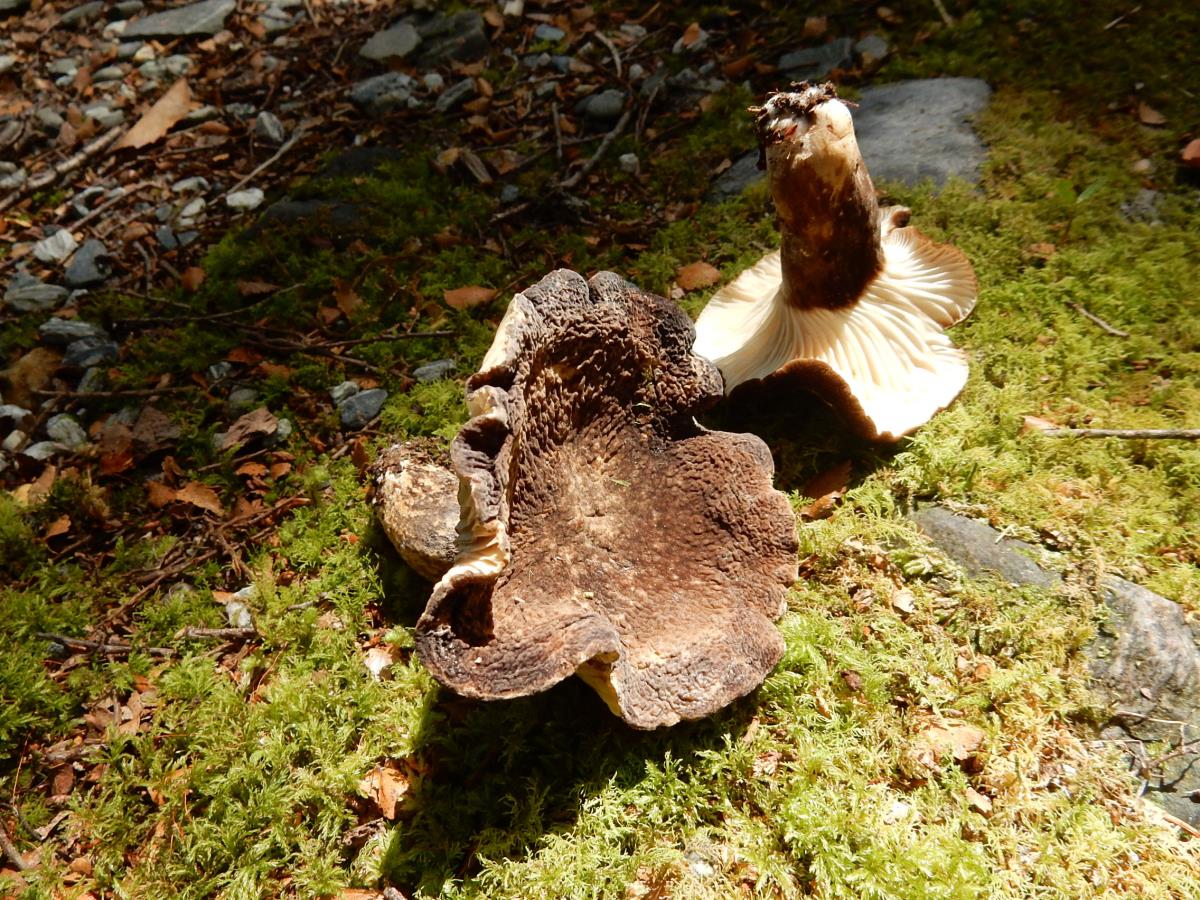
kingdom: Fungi
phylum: Basidiomycota
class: Agaricomycetes
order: Russulales
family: Russulaceae
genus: Lactifluus
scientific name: Lactifluus sepiaceus
